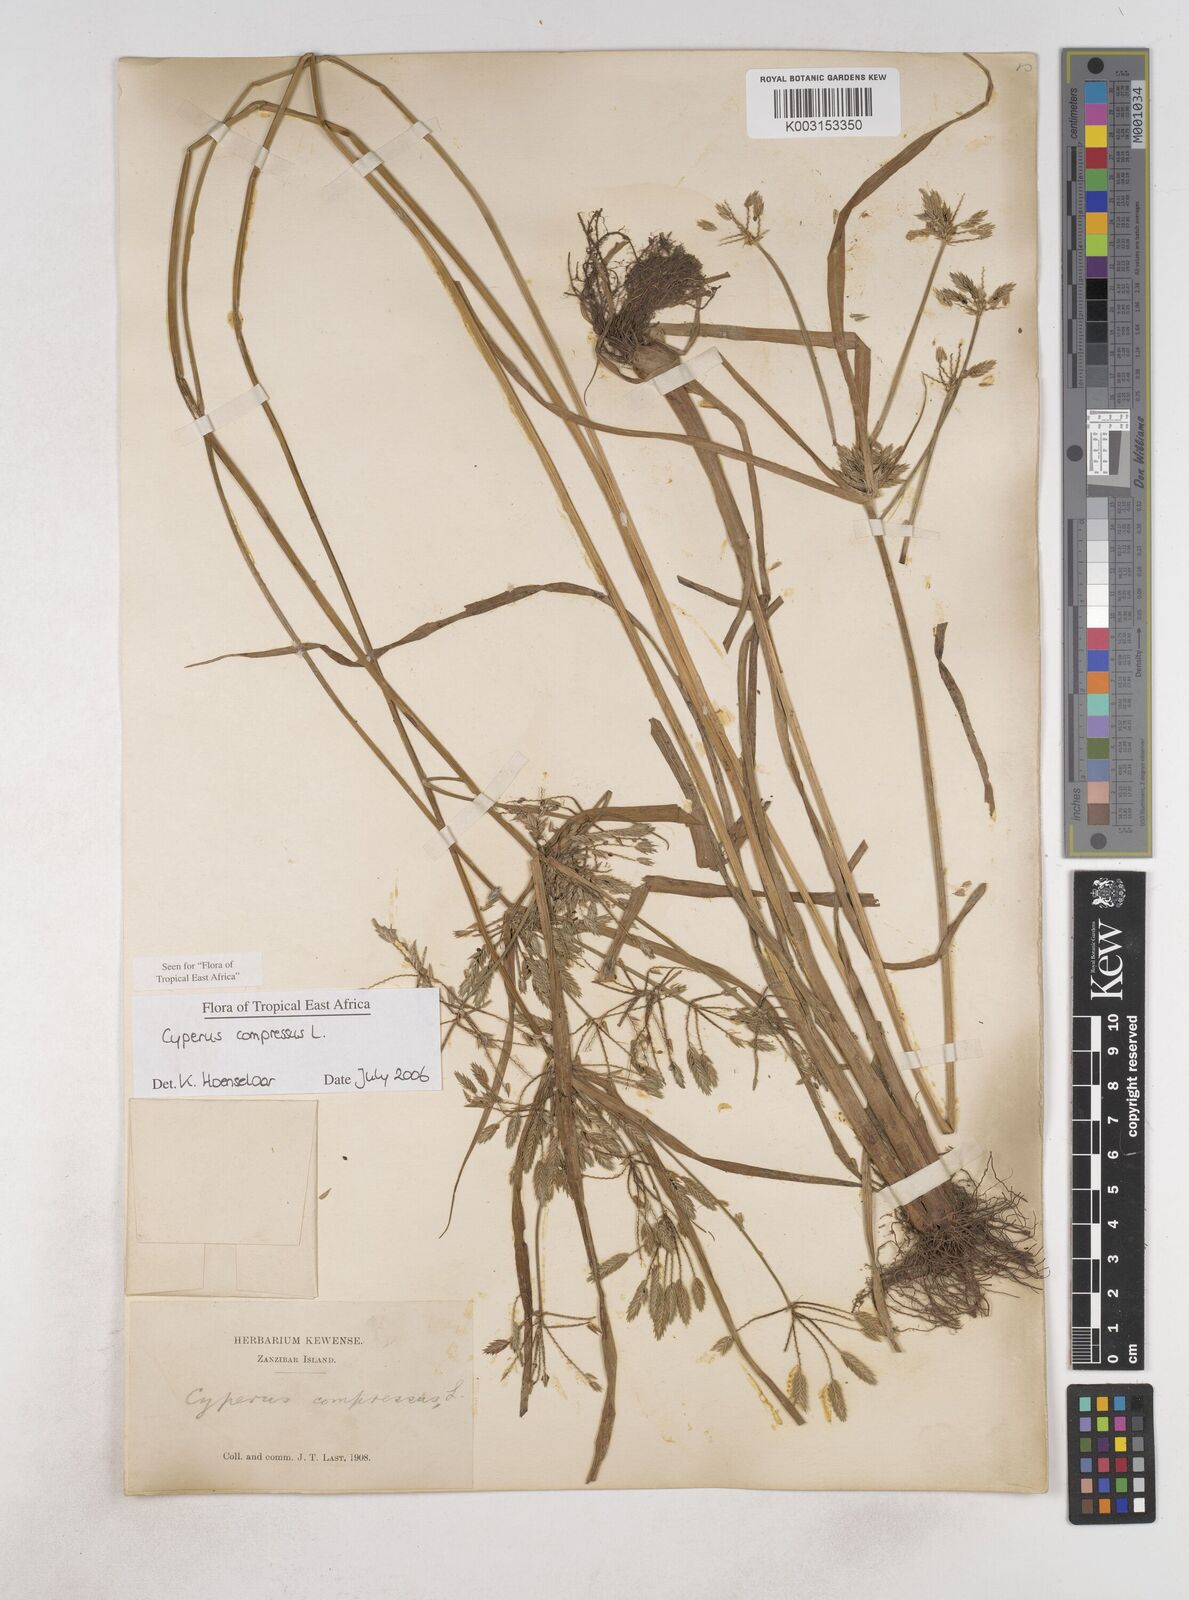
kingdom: Plantae
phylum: Tracheophyta
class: Liliopsida
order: Poales
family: Cyperaceae
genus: Cyperus
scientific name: Cyperus compressus
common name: Poorland flatsedge
